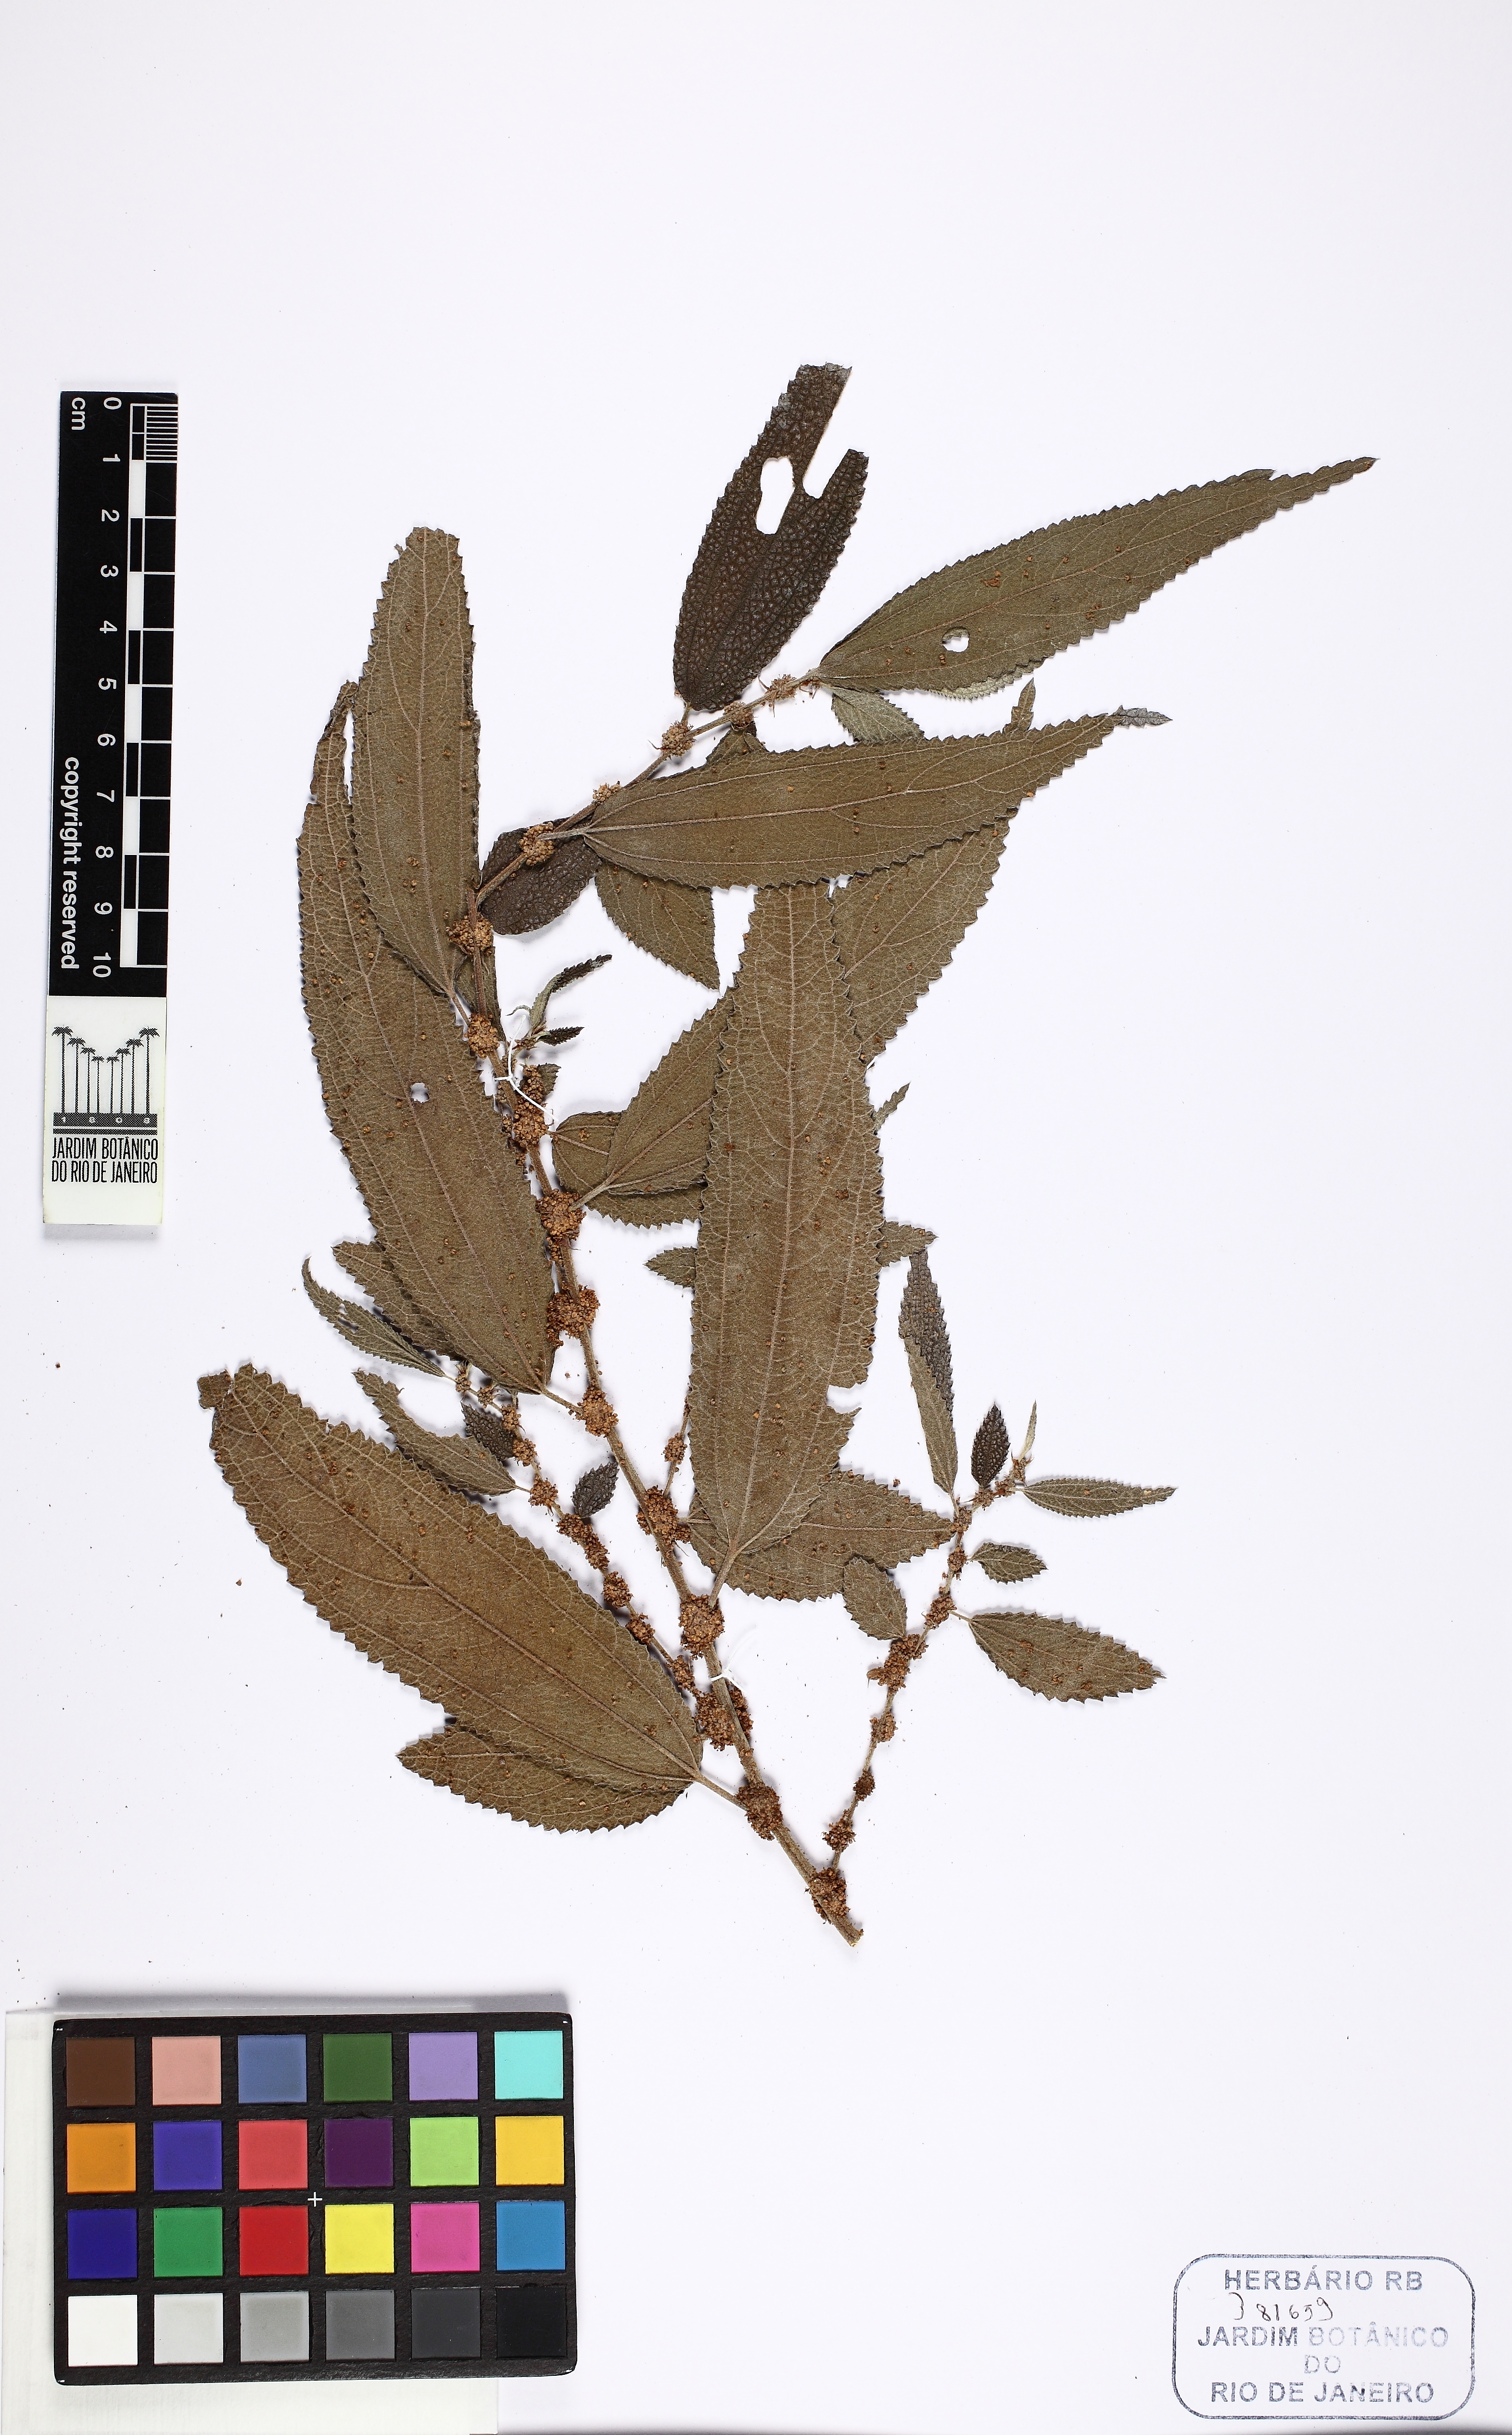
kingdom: Plantae
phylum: Tracheophyta
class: Magnoliopsida
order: Rosales
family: Urticaceae
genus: Phenax
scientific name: Phenax
